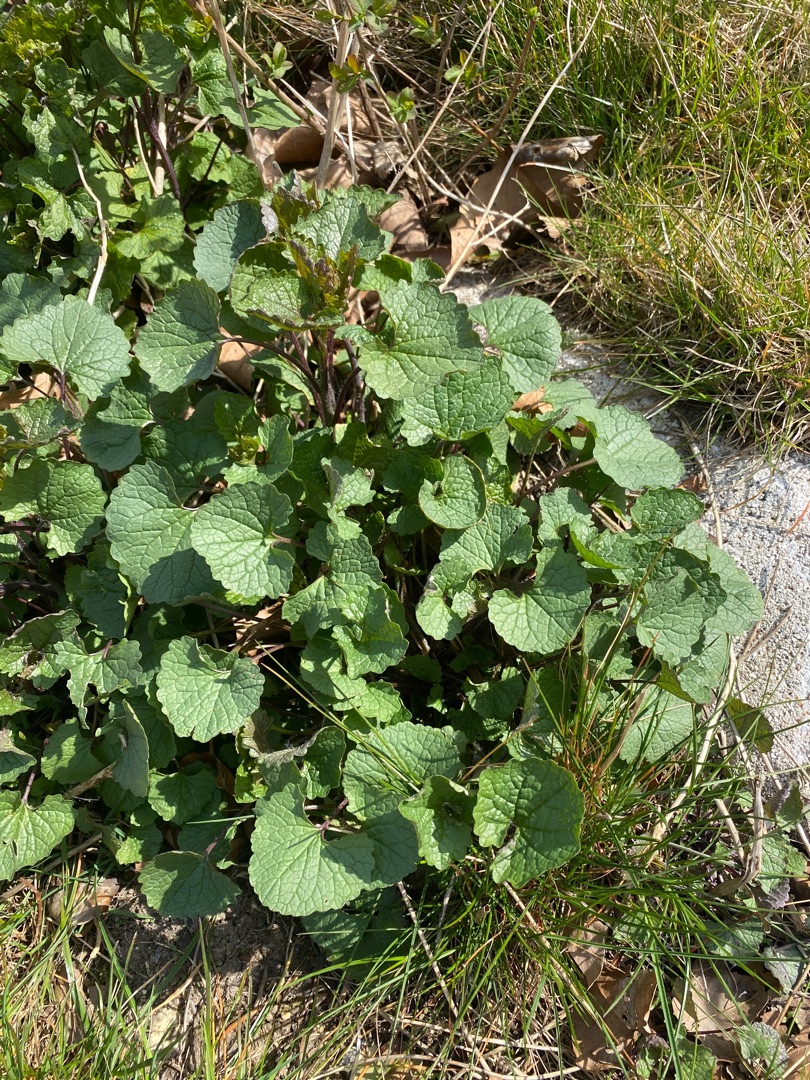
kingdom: Plantae
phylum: Tracheophyta
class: Magnoliopsida
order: Brassicales
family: Brassicaceae
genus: Alliaria
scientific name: Alliaria petiolata
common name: Løgkarse
